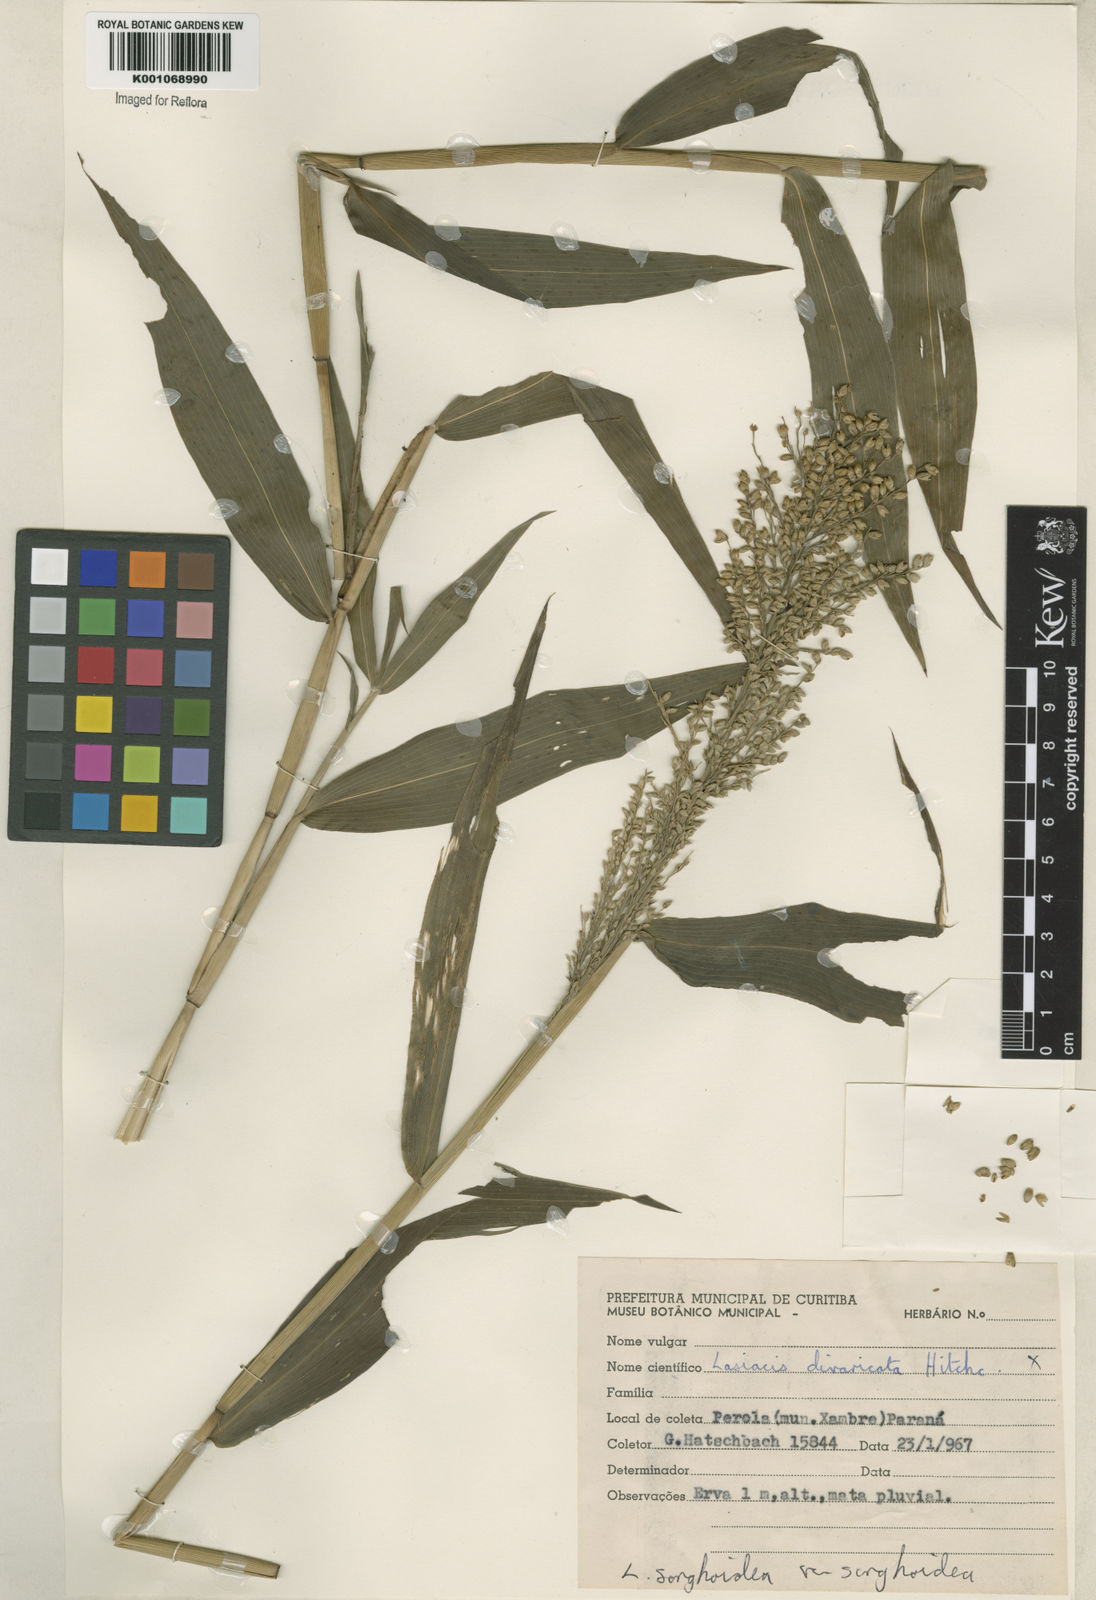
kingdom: Plantae
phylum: Tracheophyta
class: Liliopsida
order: Poales
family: Poaceae
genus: Lasiacis
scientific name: Lasiacis maculata
